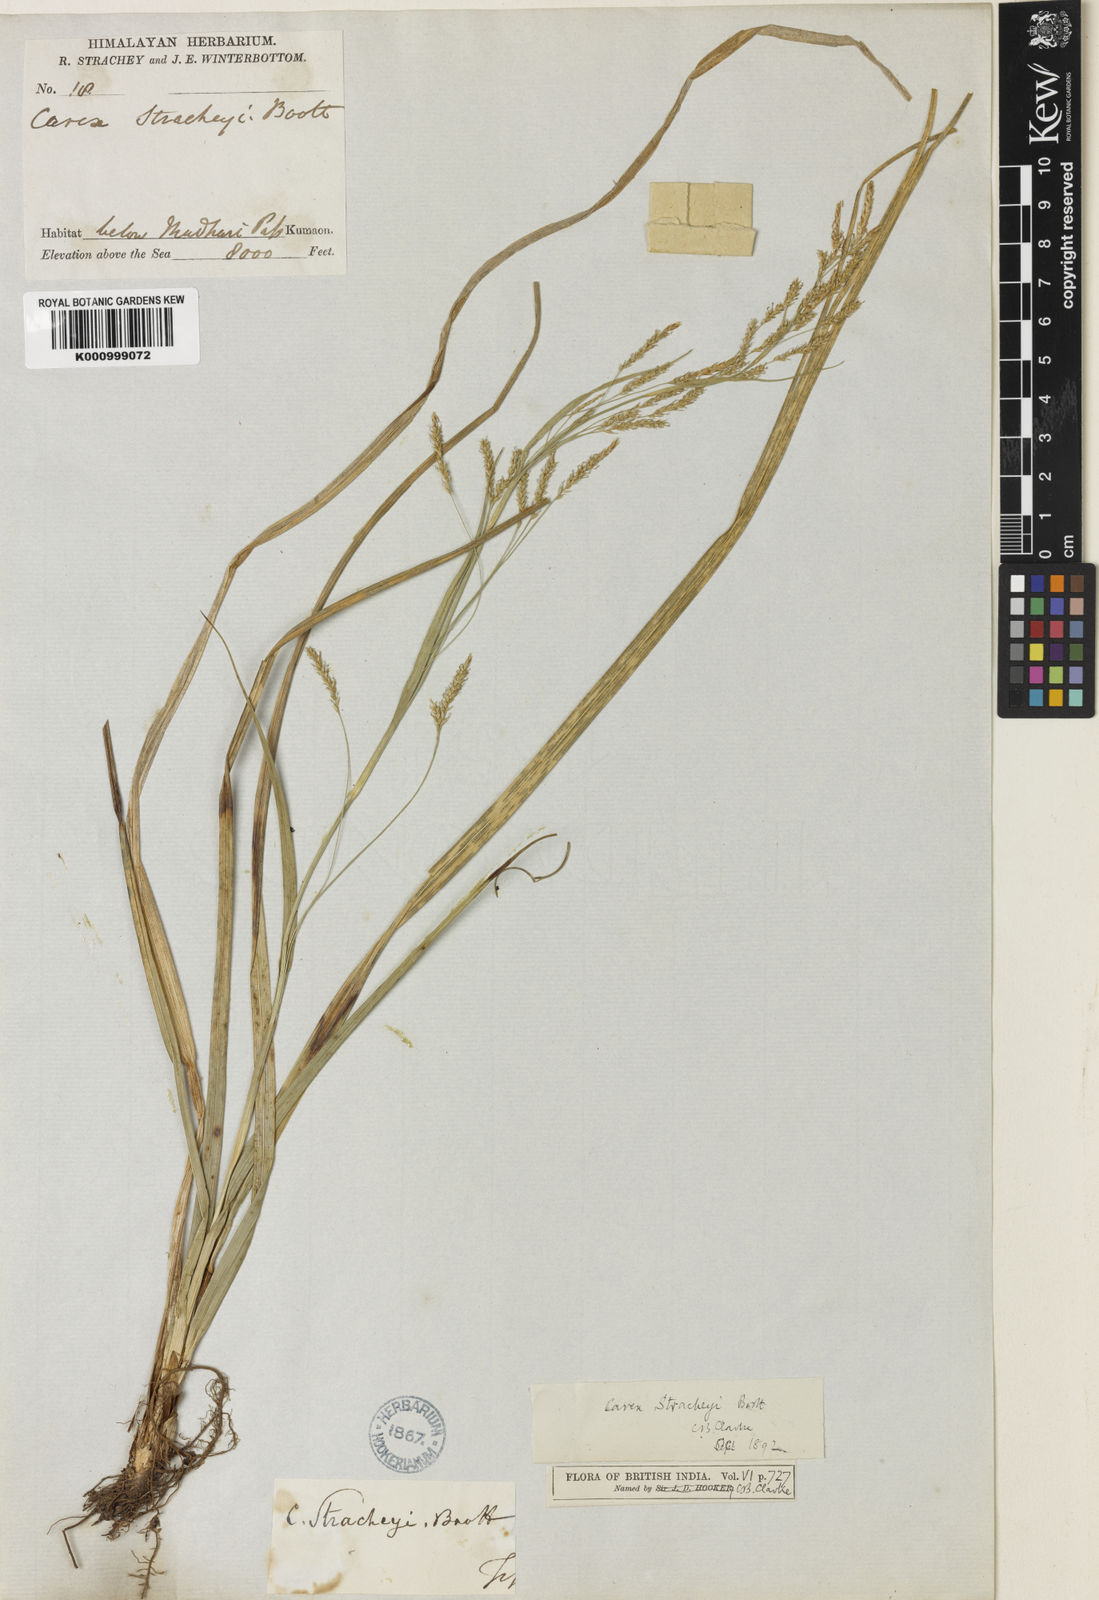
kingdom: Plantae
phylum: Tracheophyta
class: Liliopsida
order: Poales
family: Cyperaceae
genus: Carex
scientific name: Carex stracheyi
